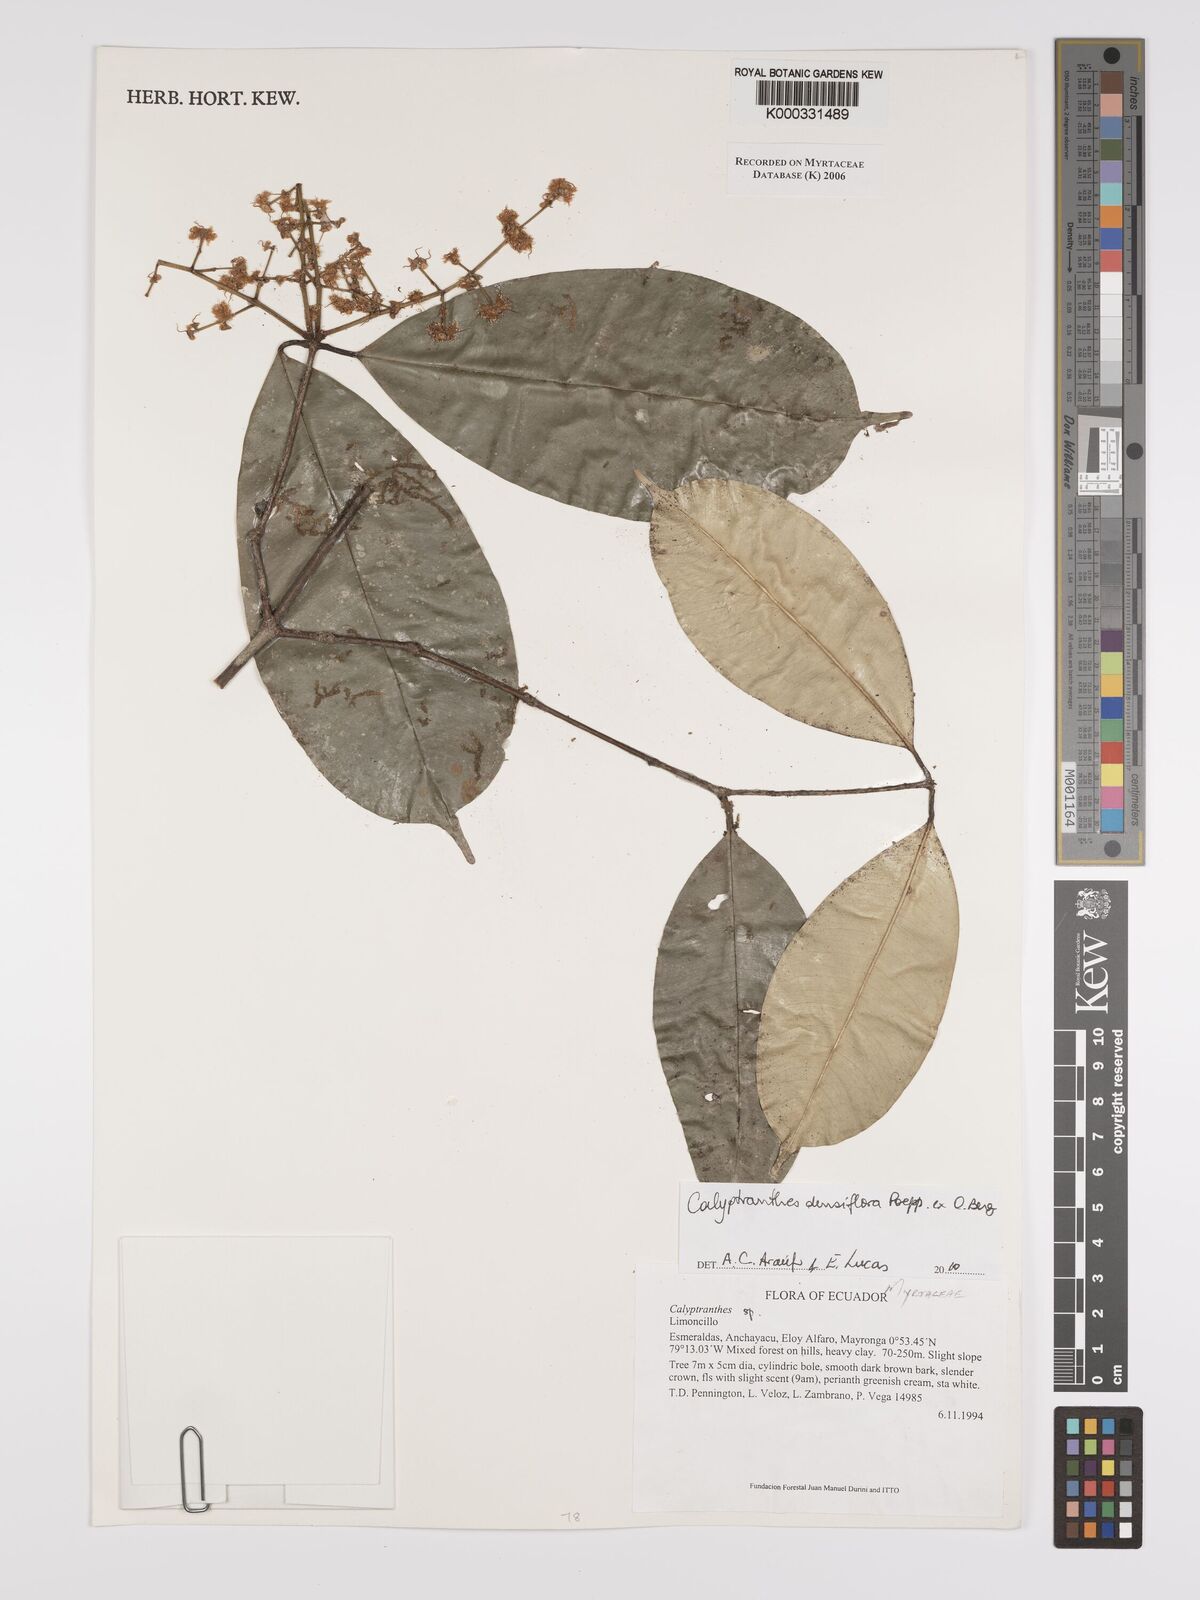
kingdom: Plantae
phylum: Tracheophyta
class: Magnoliopsida
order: Myrtales
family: Myrtaceae
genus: Calyptranthes
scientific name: Calyptranthes
